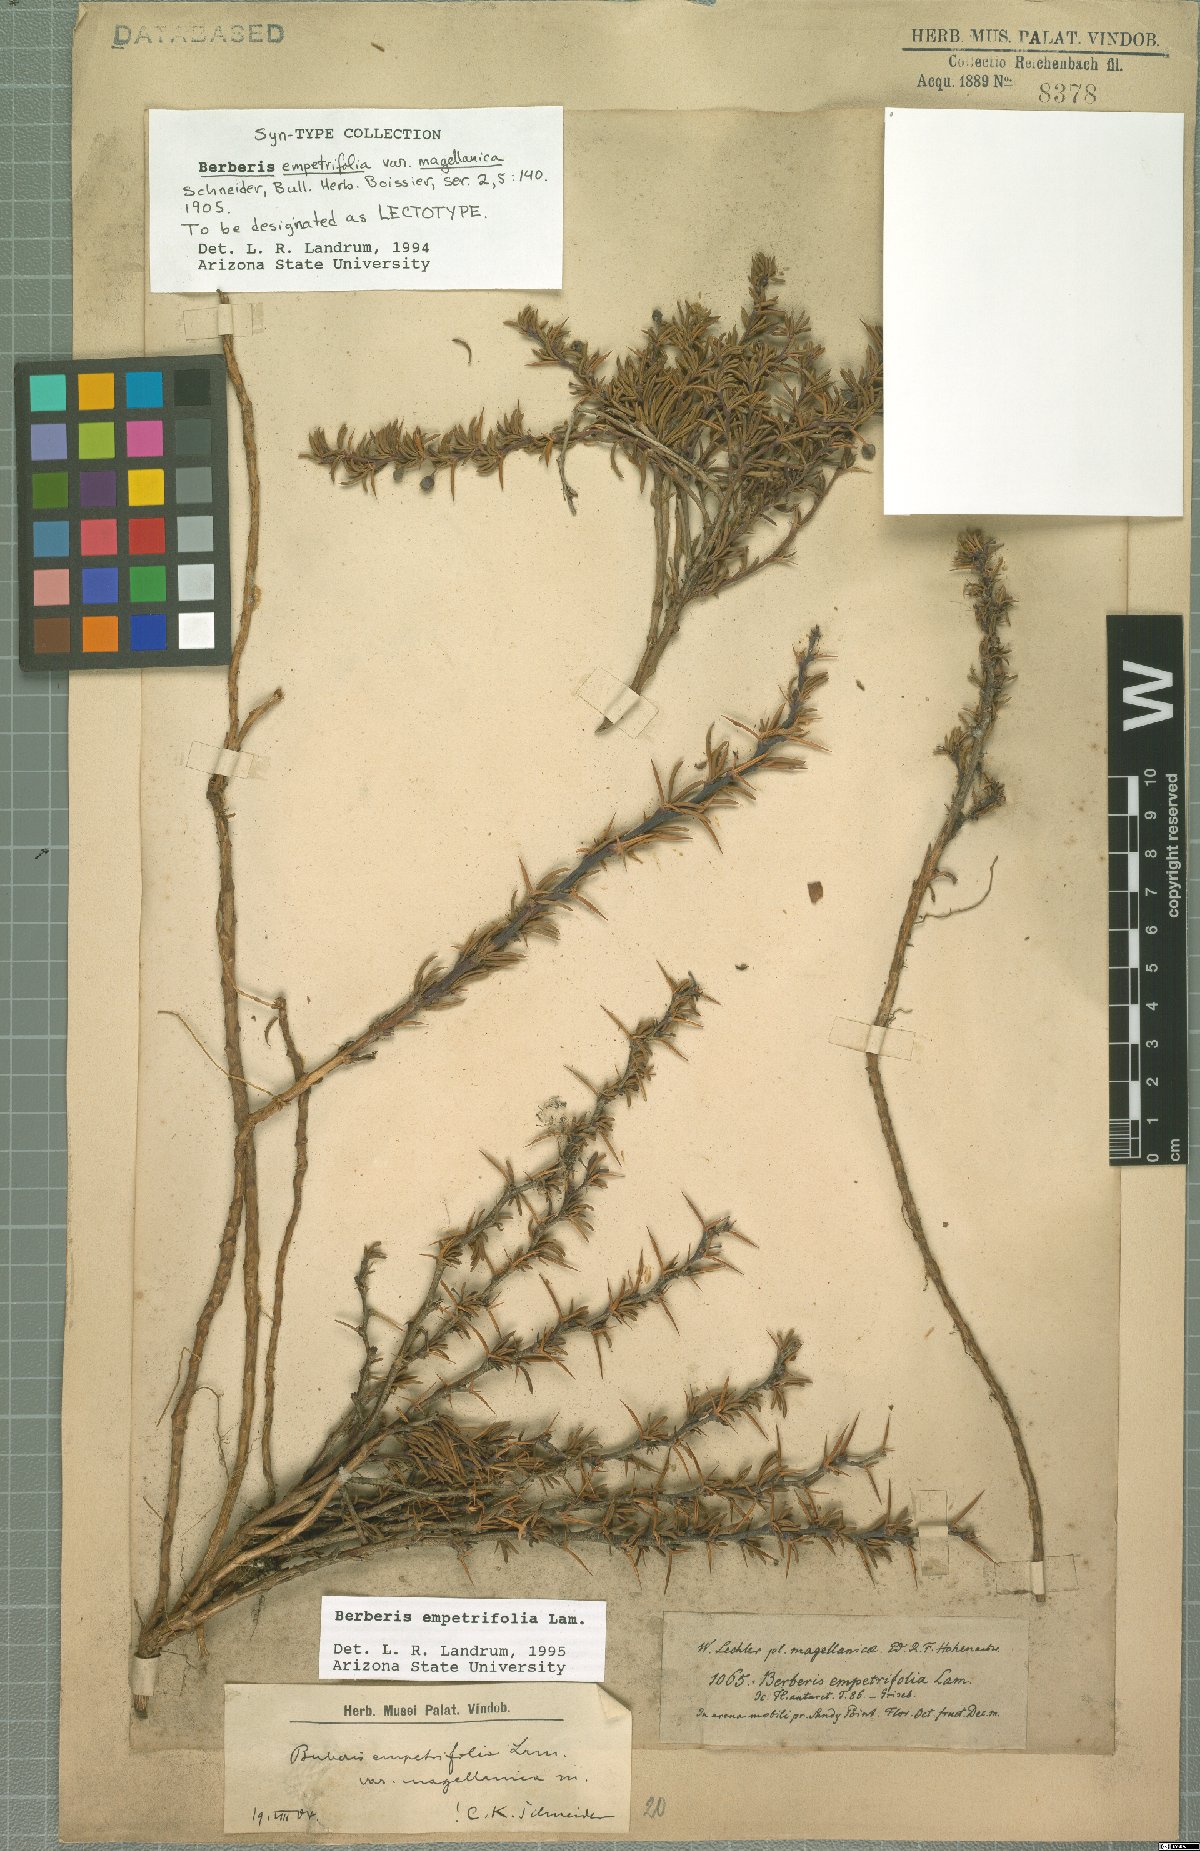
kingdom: Plantae
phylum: Tracheophyta
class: Magnoliopsida
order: Ranunculales
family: Berberidaceae
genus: Berberis
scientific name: Berberis empetrifolia
